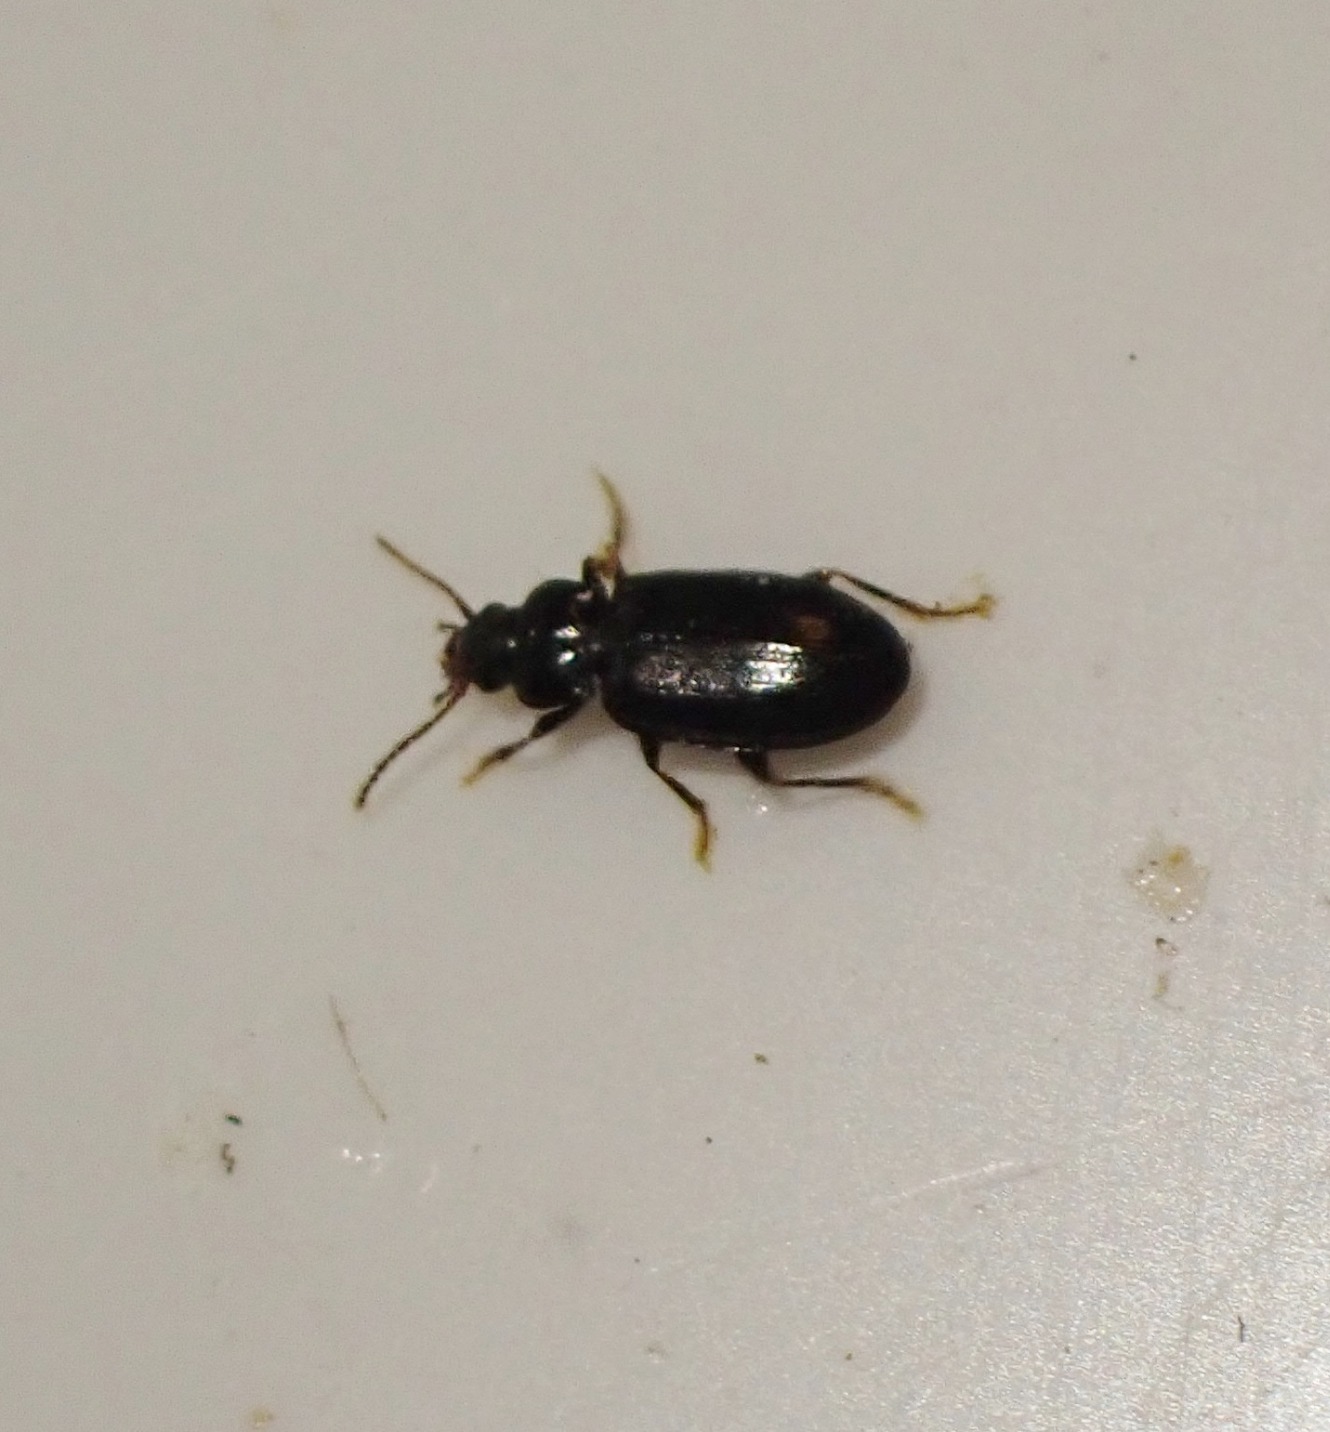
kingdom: Animalia
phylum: Arthropoda
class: Insecta
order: Coleoptera
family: Carabidae
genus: Tachyta
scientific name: Tachyta nana
